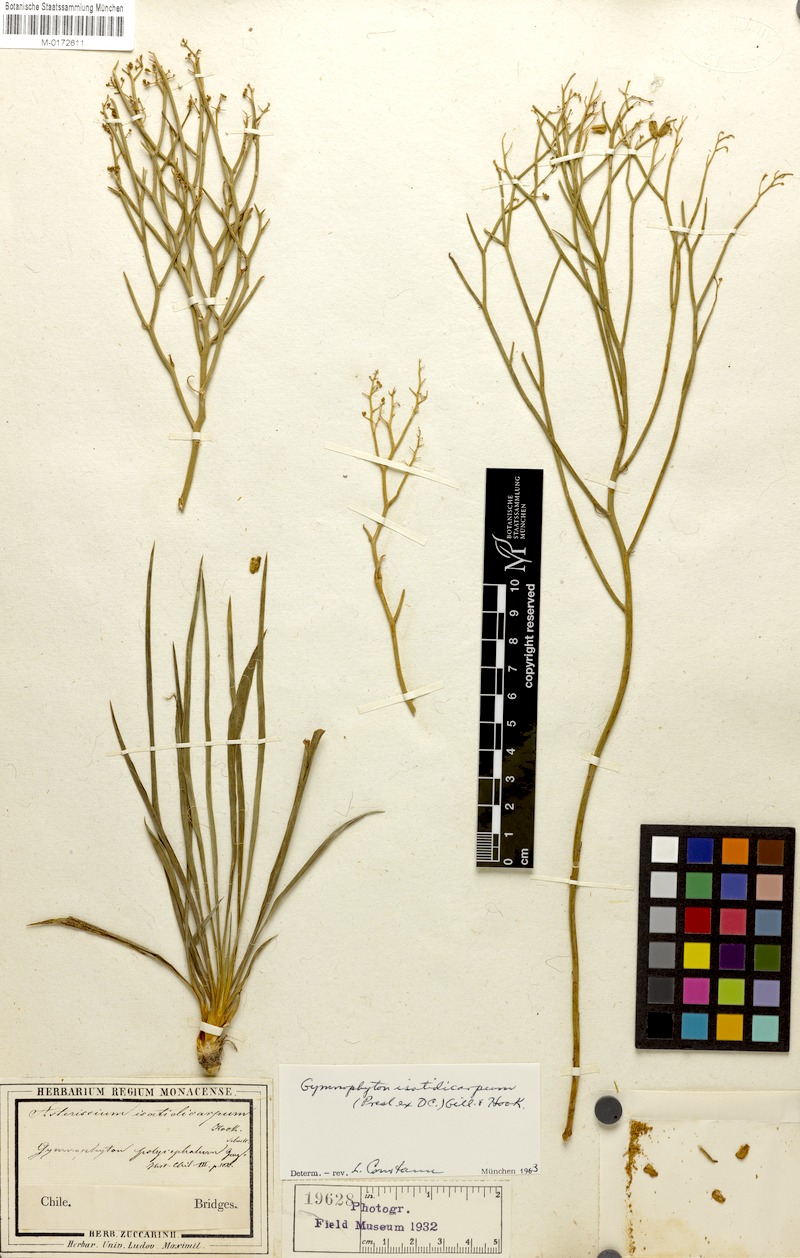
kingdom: Plantae
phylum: Tracheophyta
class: Magnoliopsida
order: Apiales
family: Apiaceae
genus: Gymnophyton
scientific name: Gymnophyton isatidicarpum
